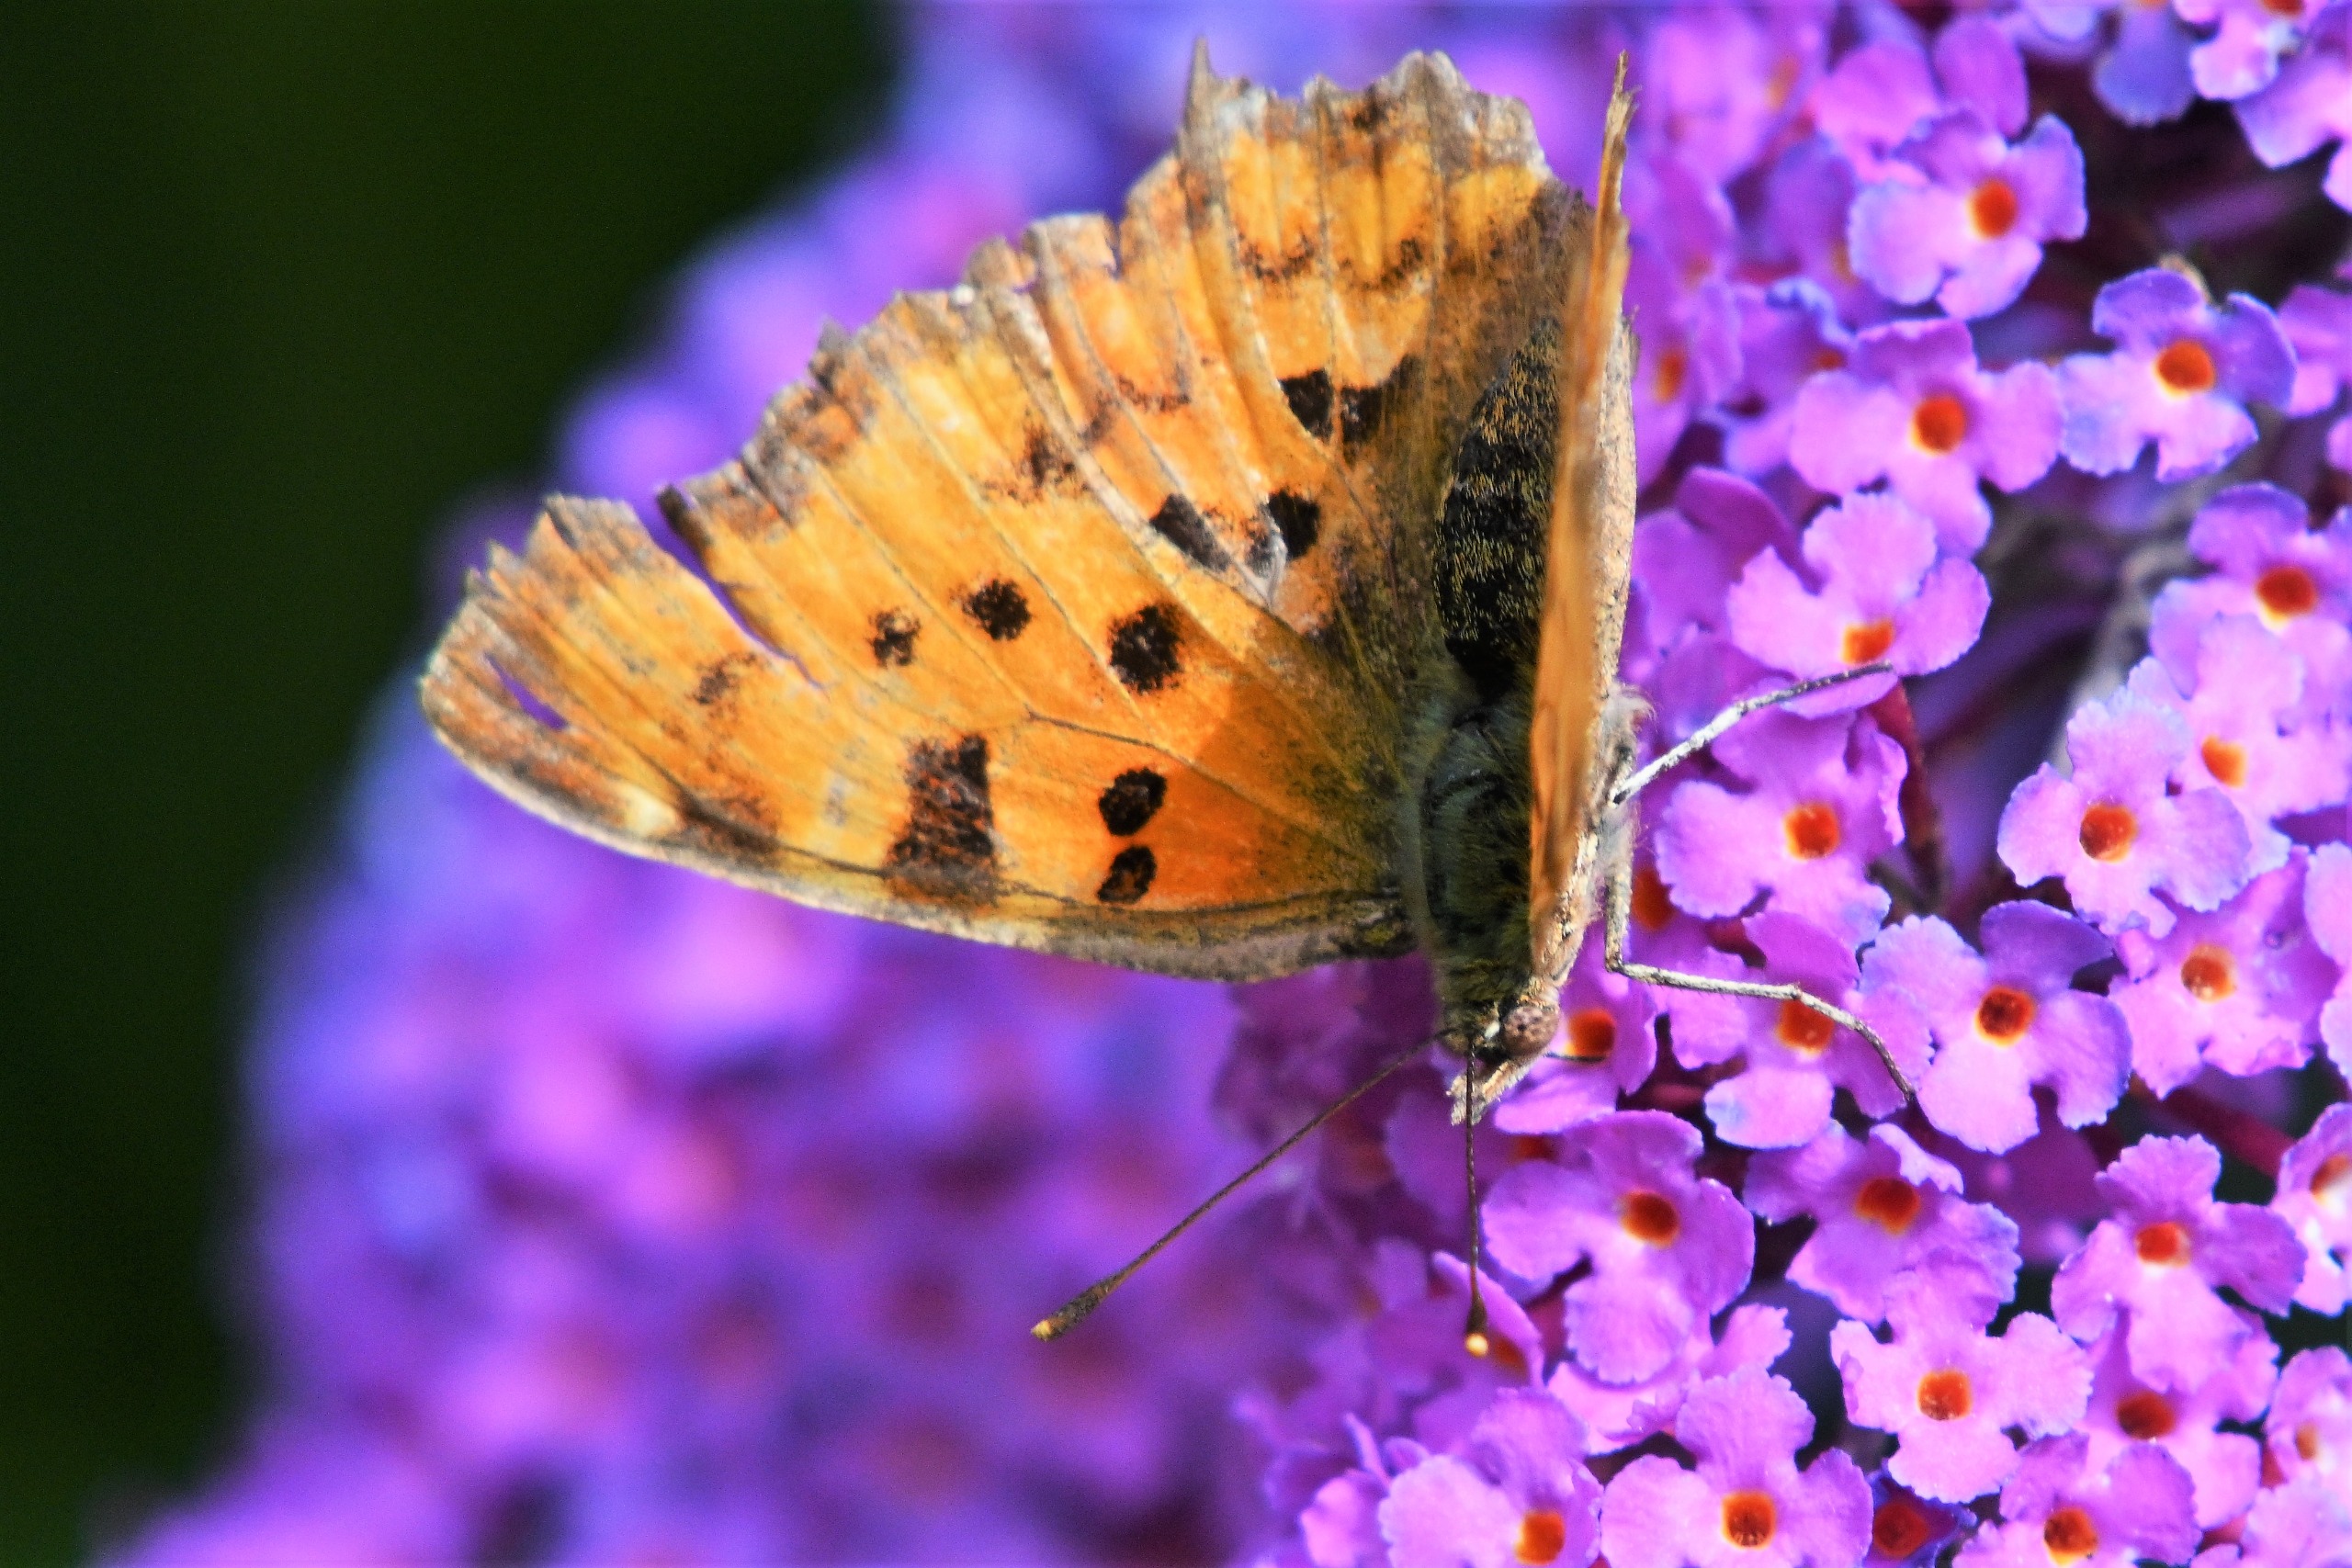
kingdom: Animalia
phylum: Arthropoda
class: Insecta
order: Lepidoptera
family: Nymphalidae
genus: Polygonia
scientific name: Polygonia c-album
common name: Det hvide C
